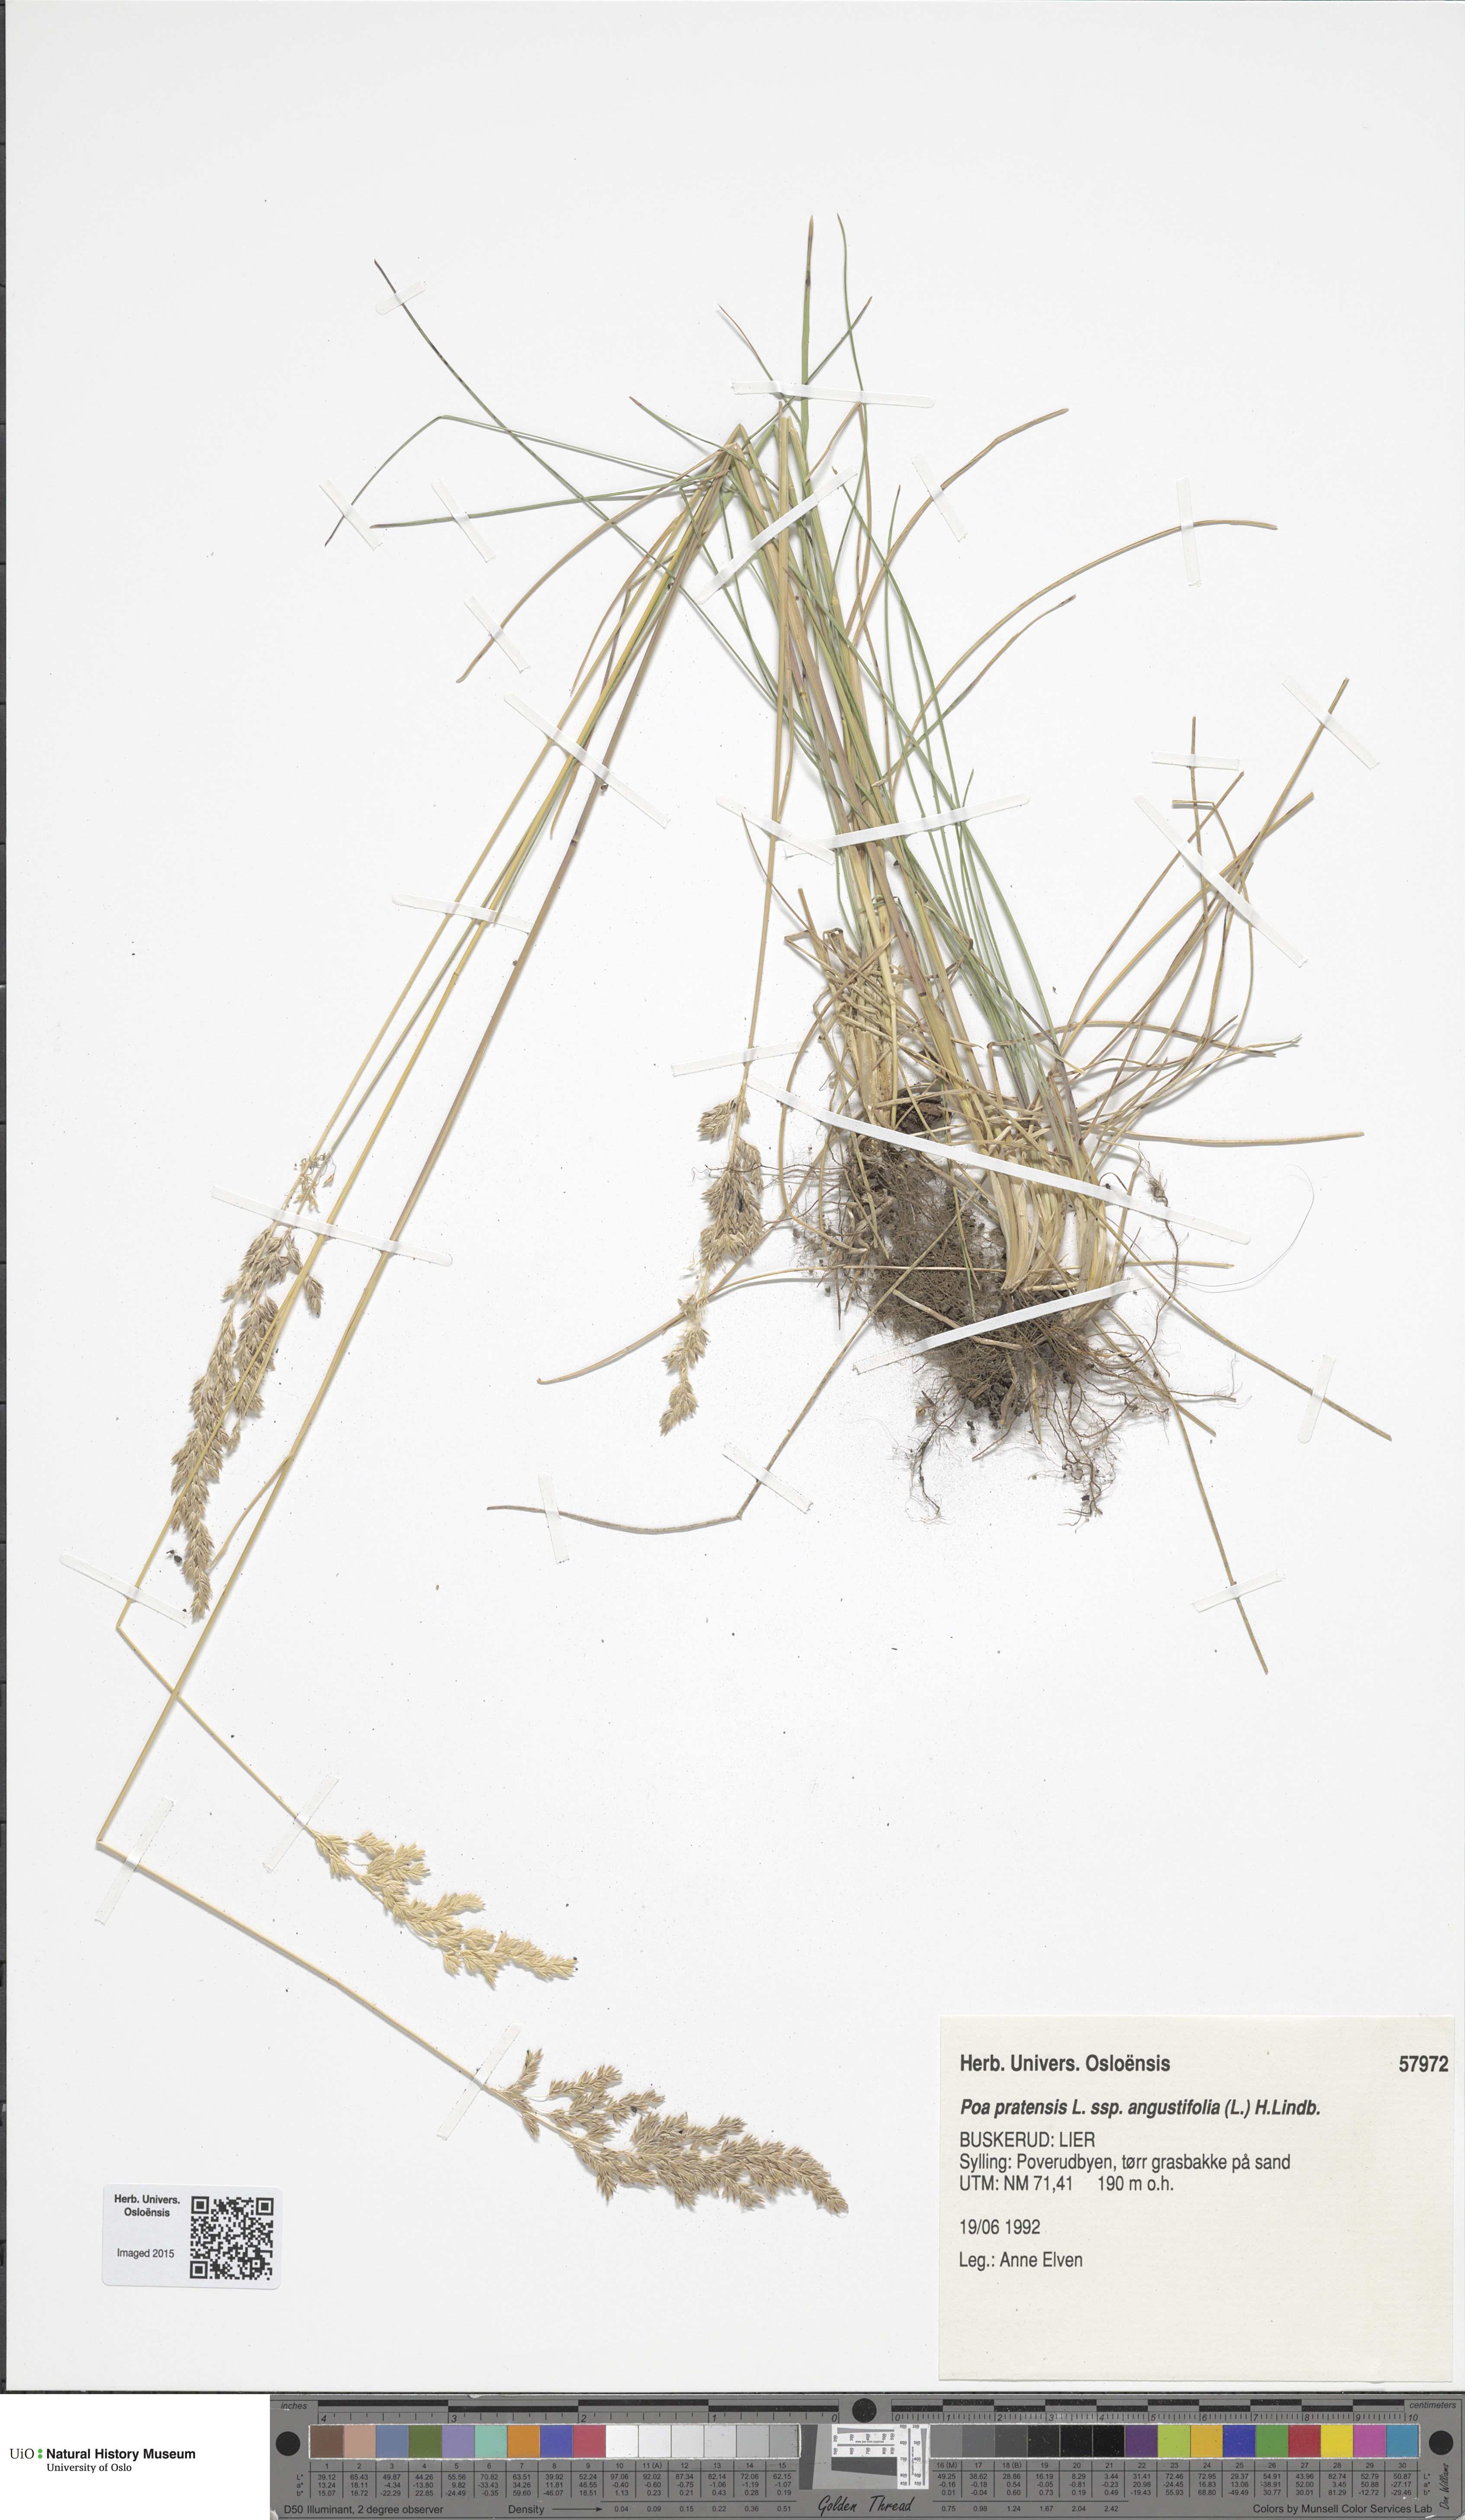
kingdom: Plantae
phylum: Tracheophyta
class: Liliopsida
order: Poales
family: Poaceae
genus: Poa
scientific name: Poa angustifolia
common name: Narrow-leaved meadow-grass
